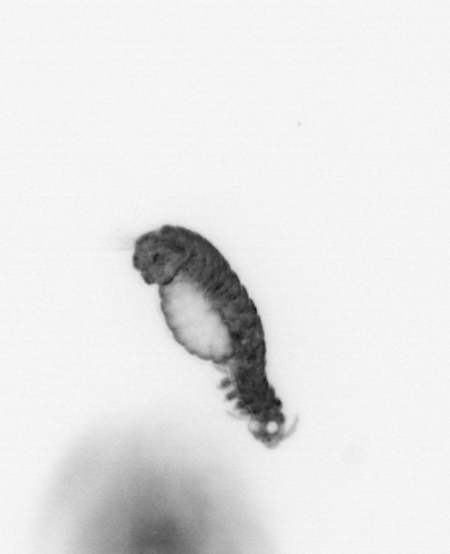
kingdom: Animalia
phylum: Annelida
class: Polychaeta
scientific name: Polychaeta
